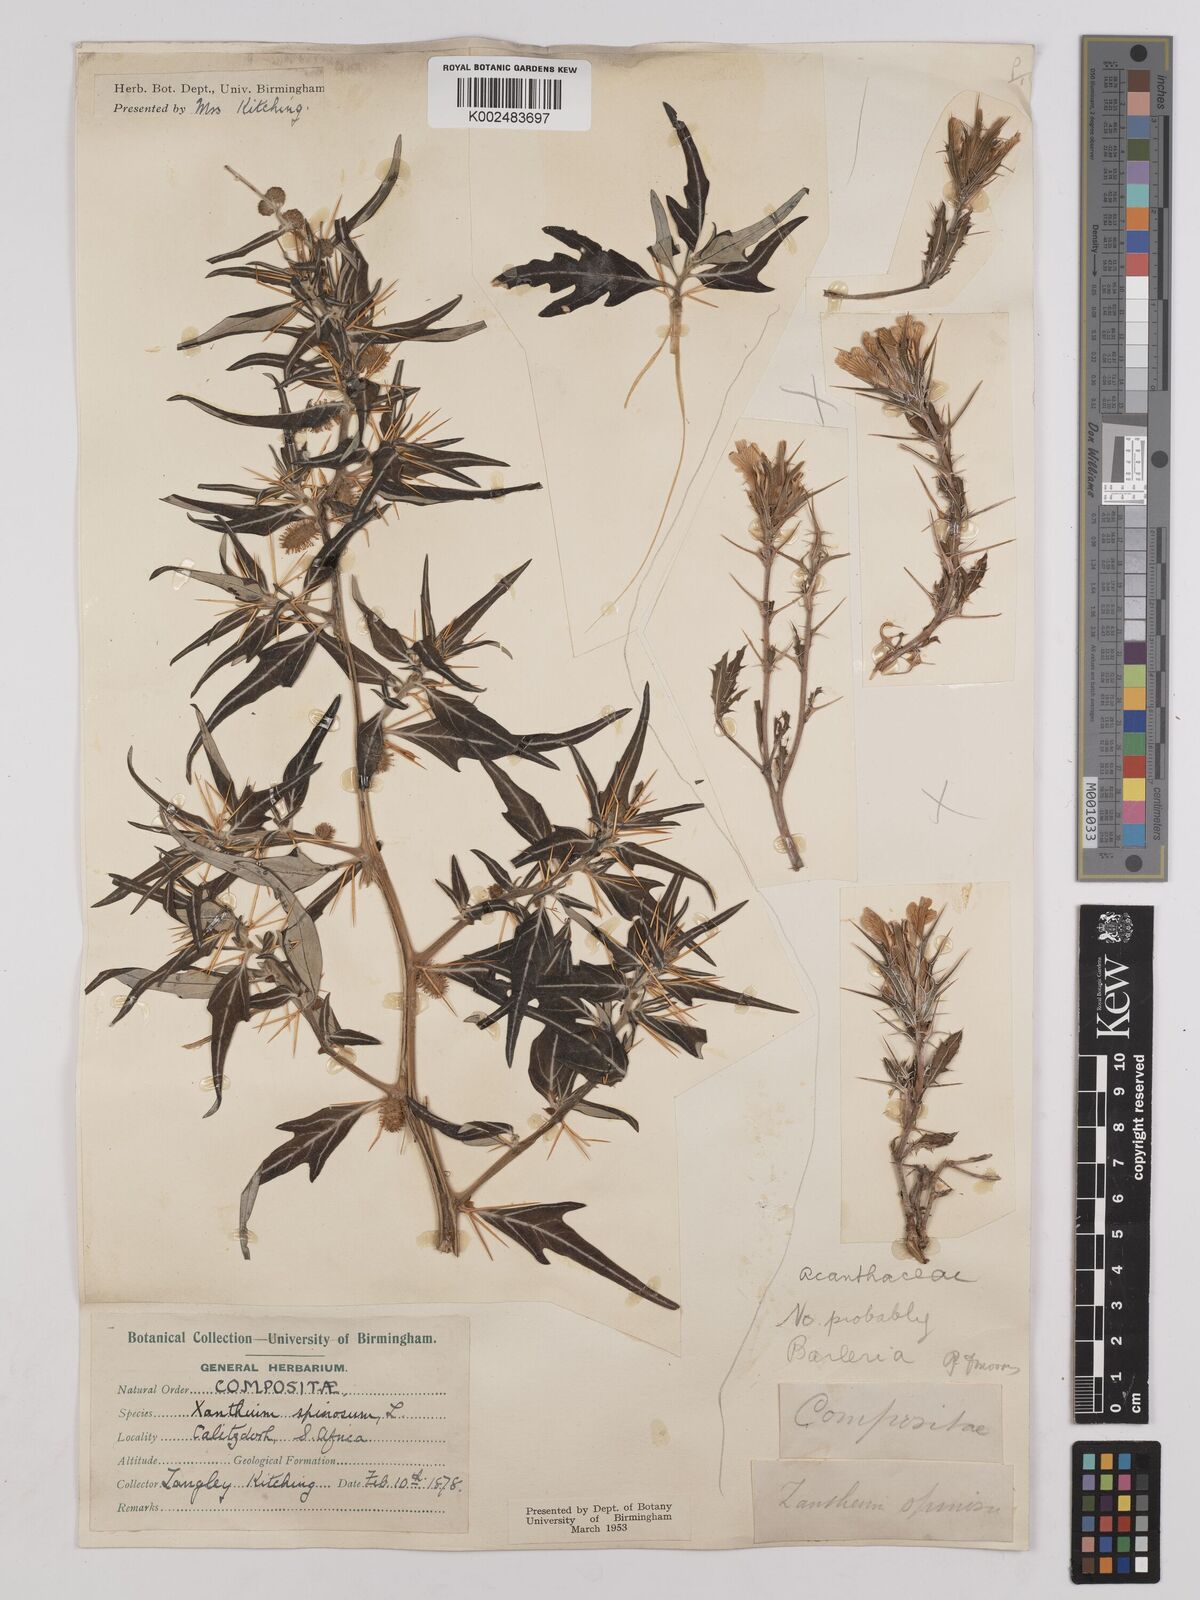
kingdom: Plantae
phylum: Tracheophyta
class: Magnoliopsida
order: Asterales
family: Asteraceae
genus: Xanthium
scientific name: Xanthium spinosum
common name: Spiny cocklebur
